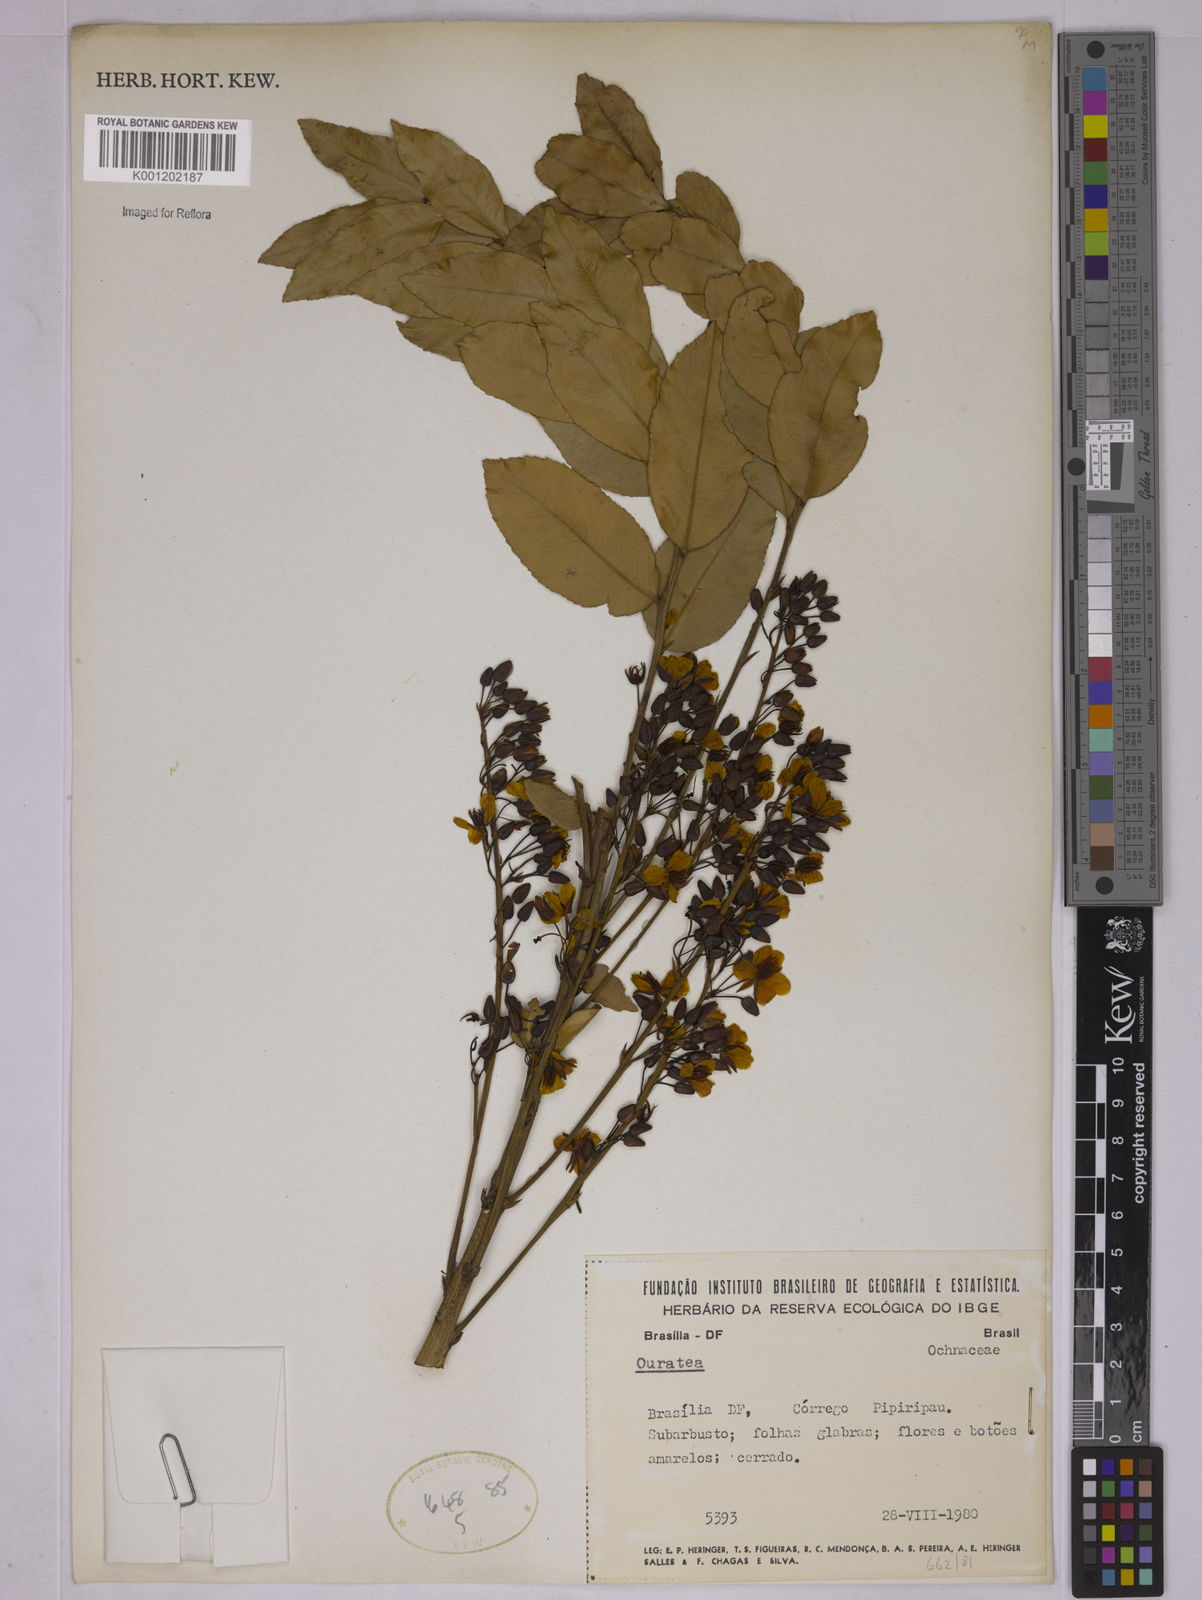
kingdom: Plantae
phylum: Tracheophyta
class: Magnoliopsida
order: Malpighiales
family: Ochnaceae
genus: Ouratea
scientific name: Ouratea
